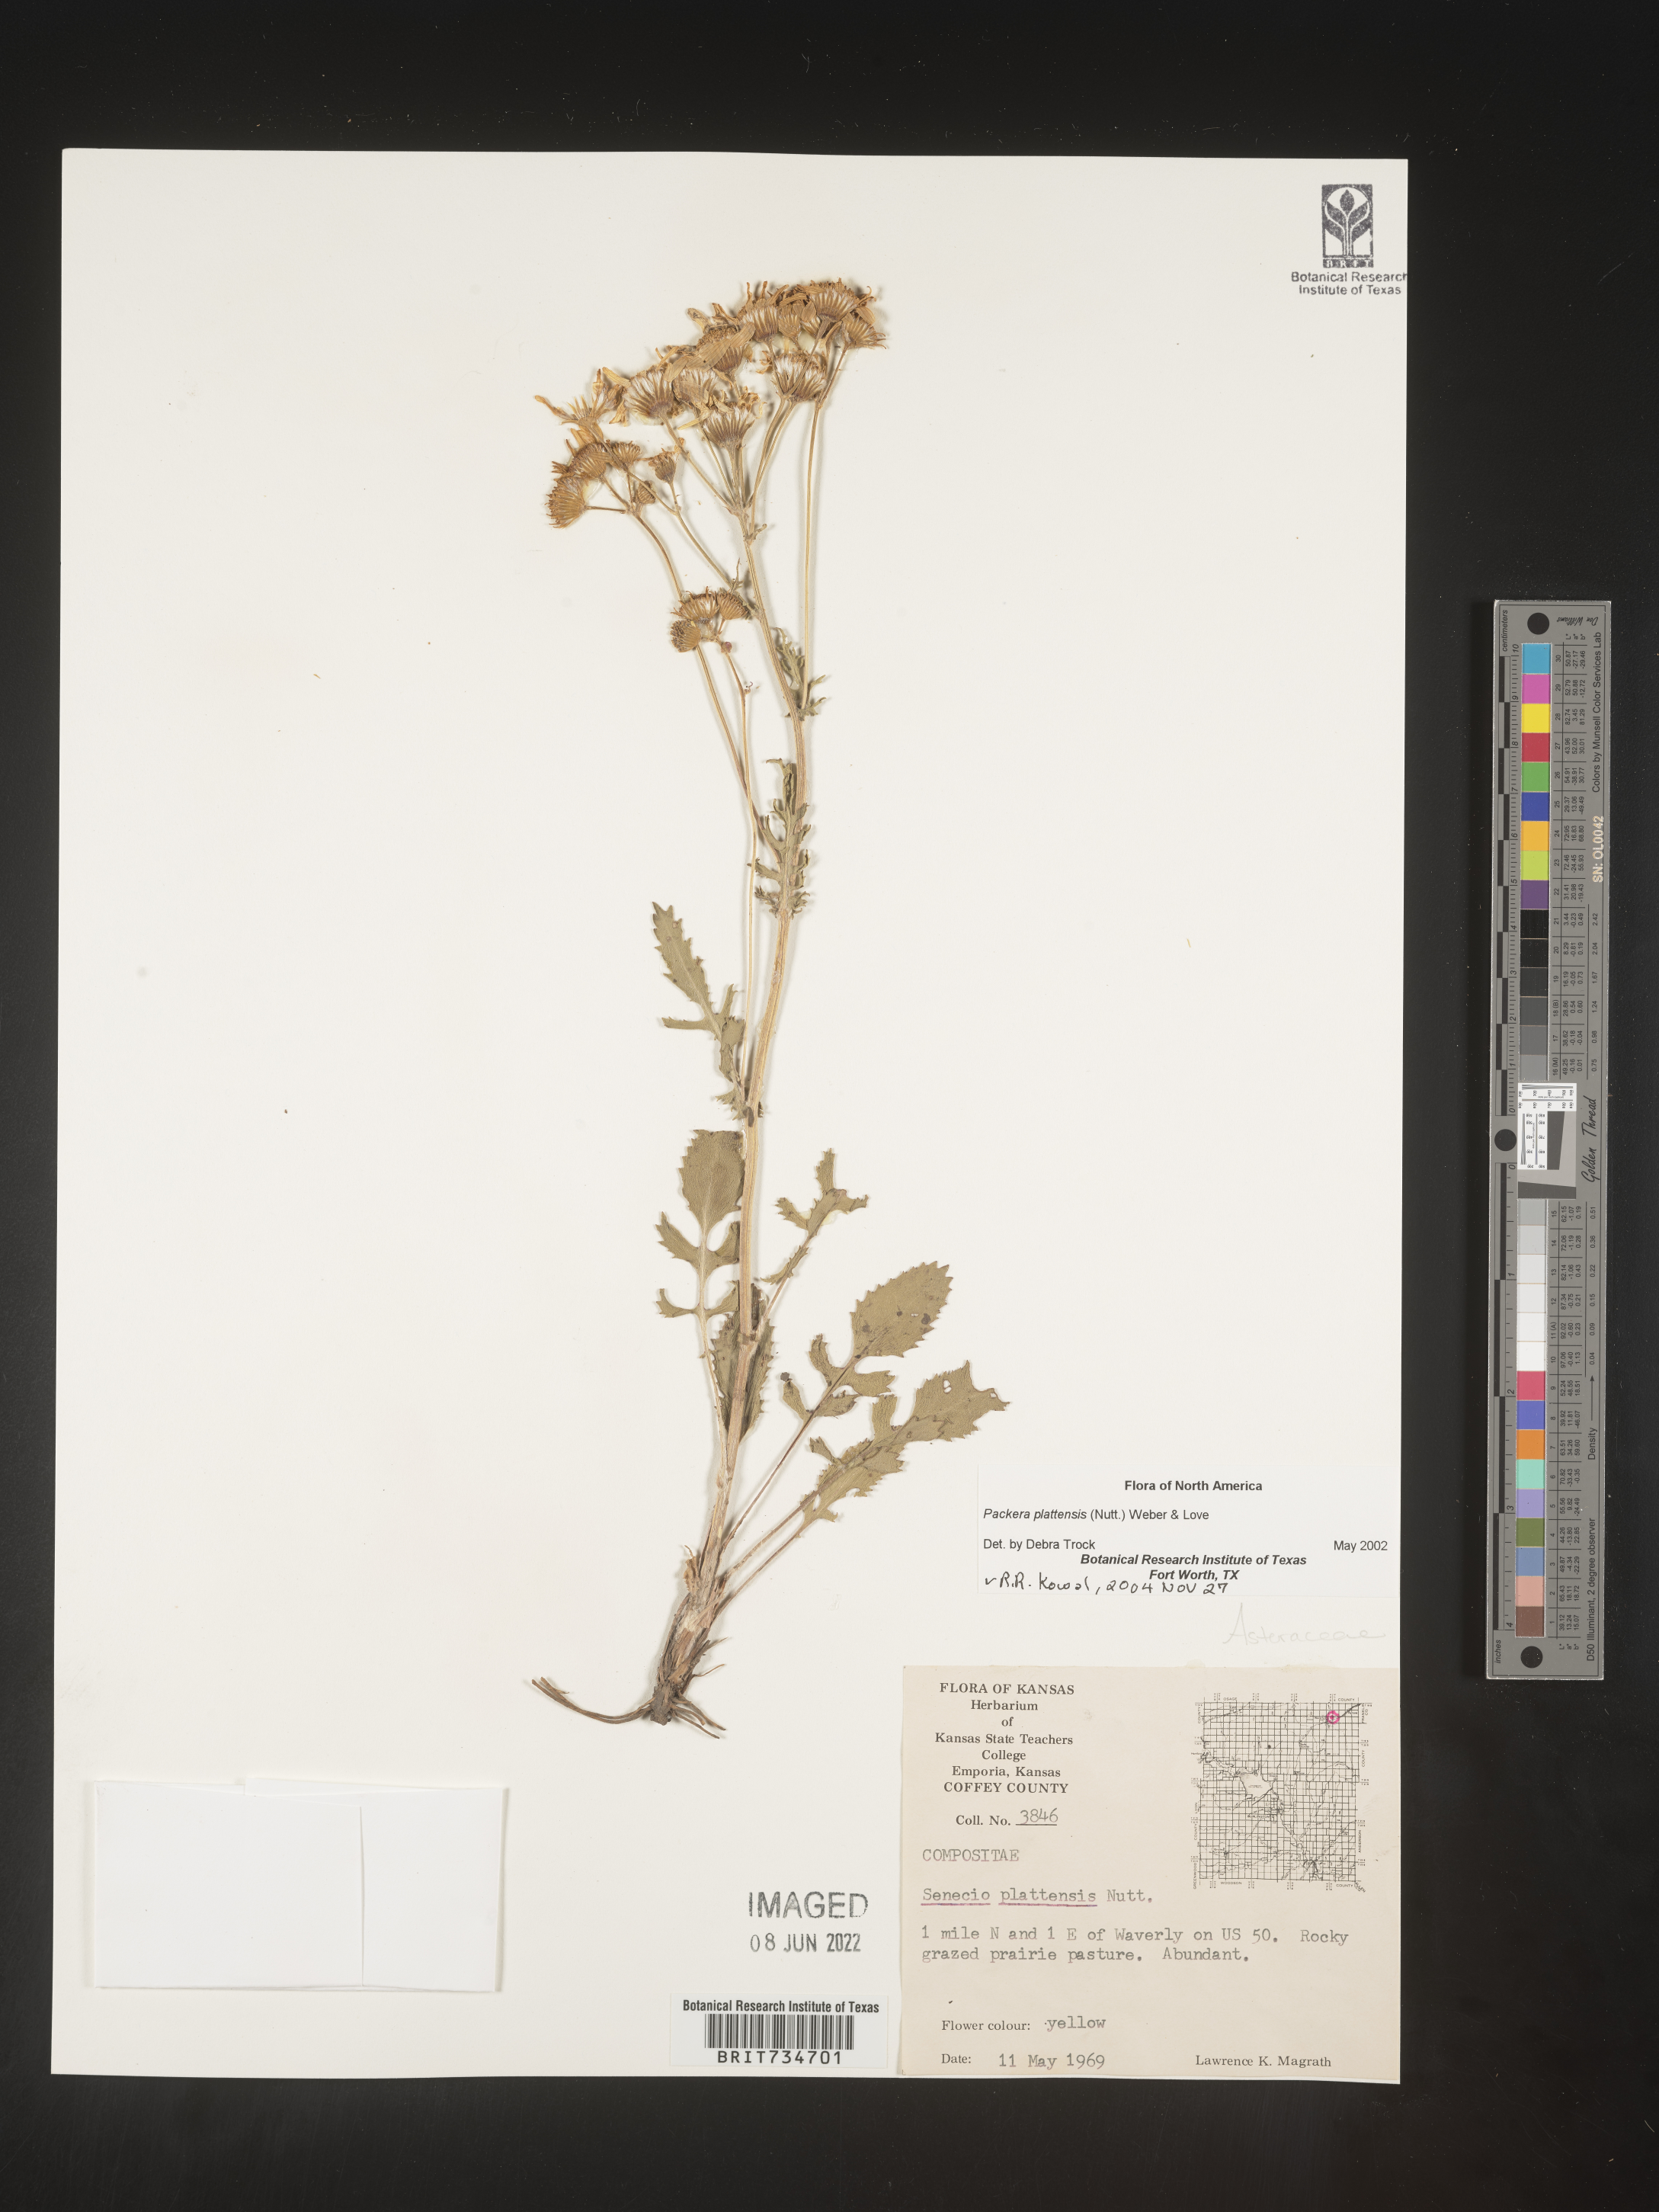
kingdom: Plantae
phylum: Tracheophyta
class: Magnoliopsida
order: Asterales
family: Asteraceae
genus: Packera
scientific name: Packera plattensis
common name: Prairie groundsel
